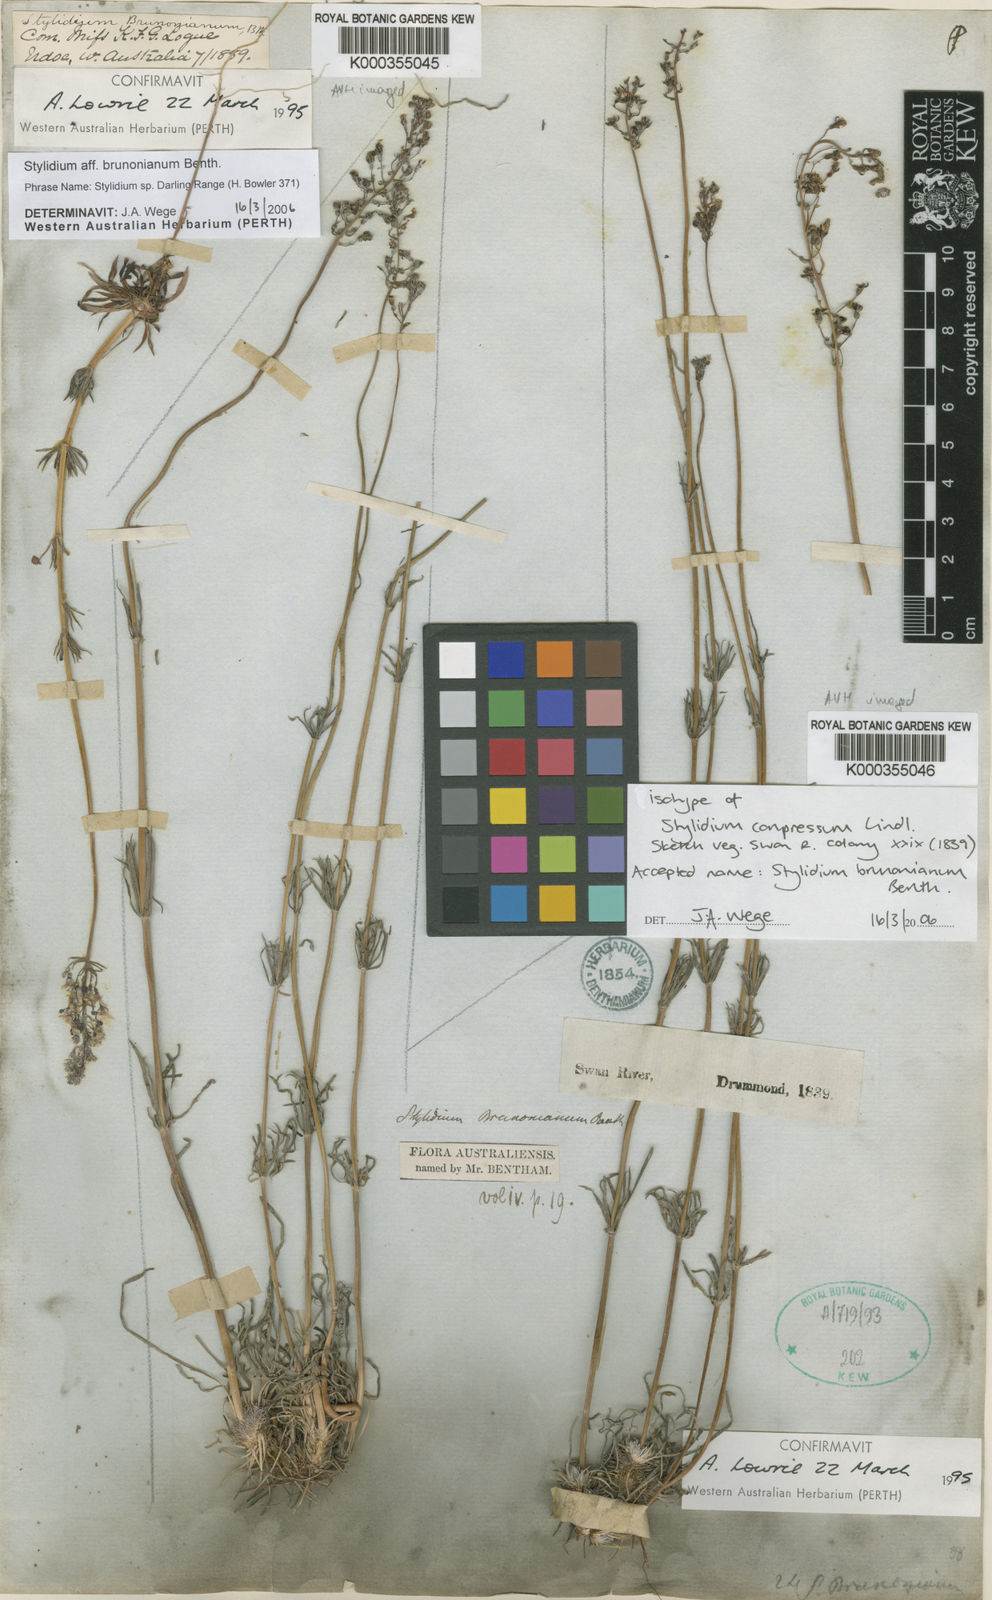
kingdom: Plantae
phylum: Tracheophyta
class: Magnoliopsida
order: Asterales
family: Stylidiaceae
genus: Stylidium
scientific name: Stylidium brunonianum
